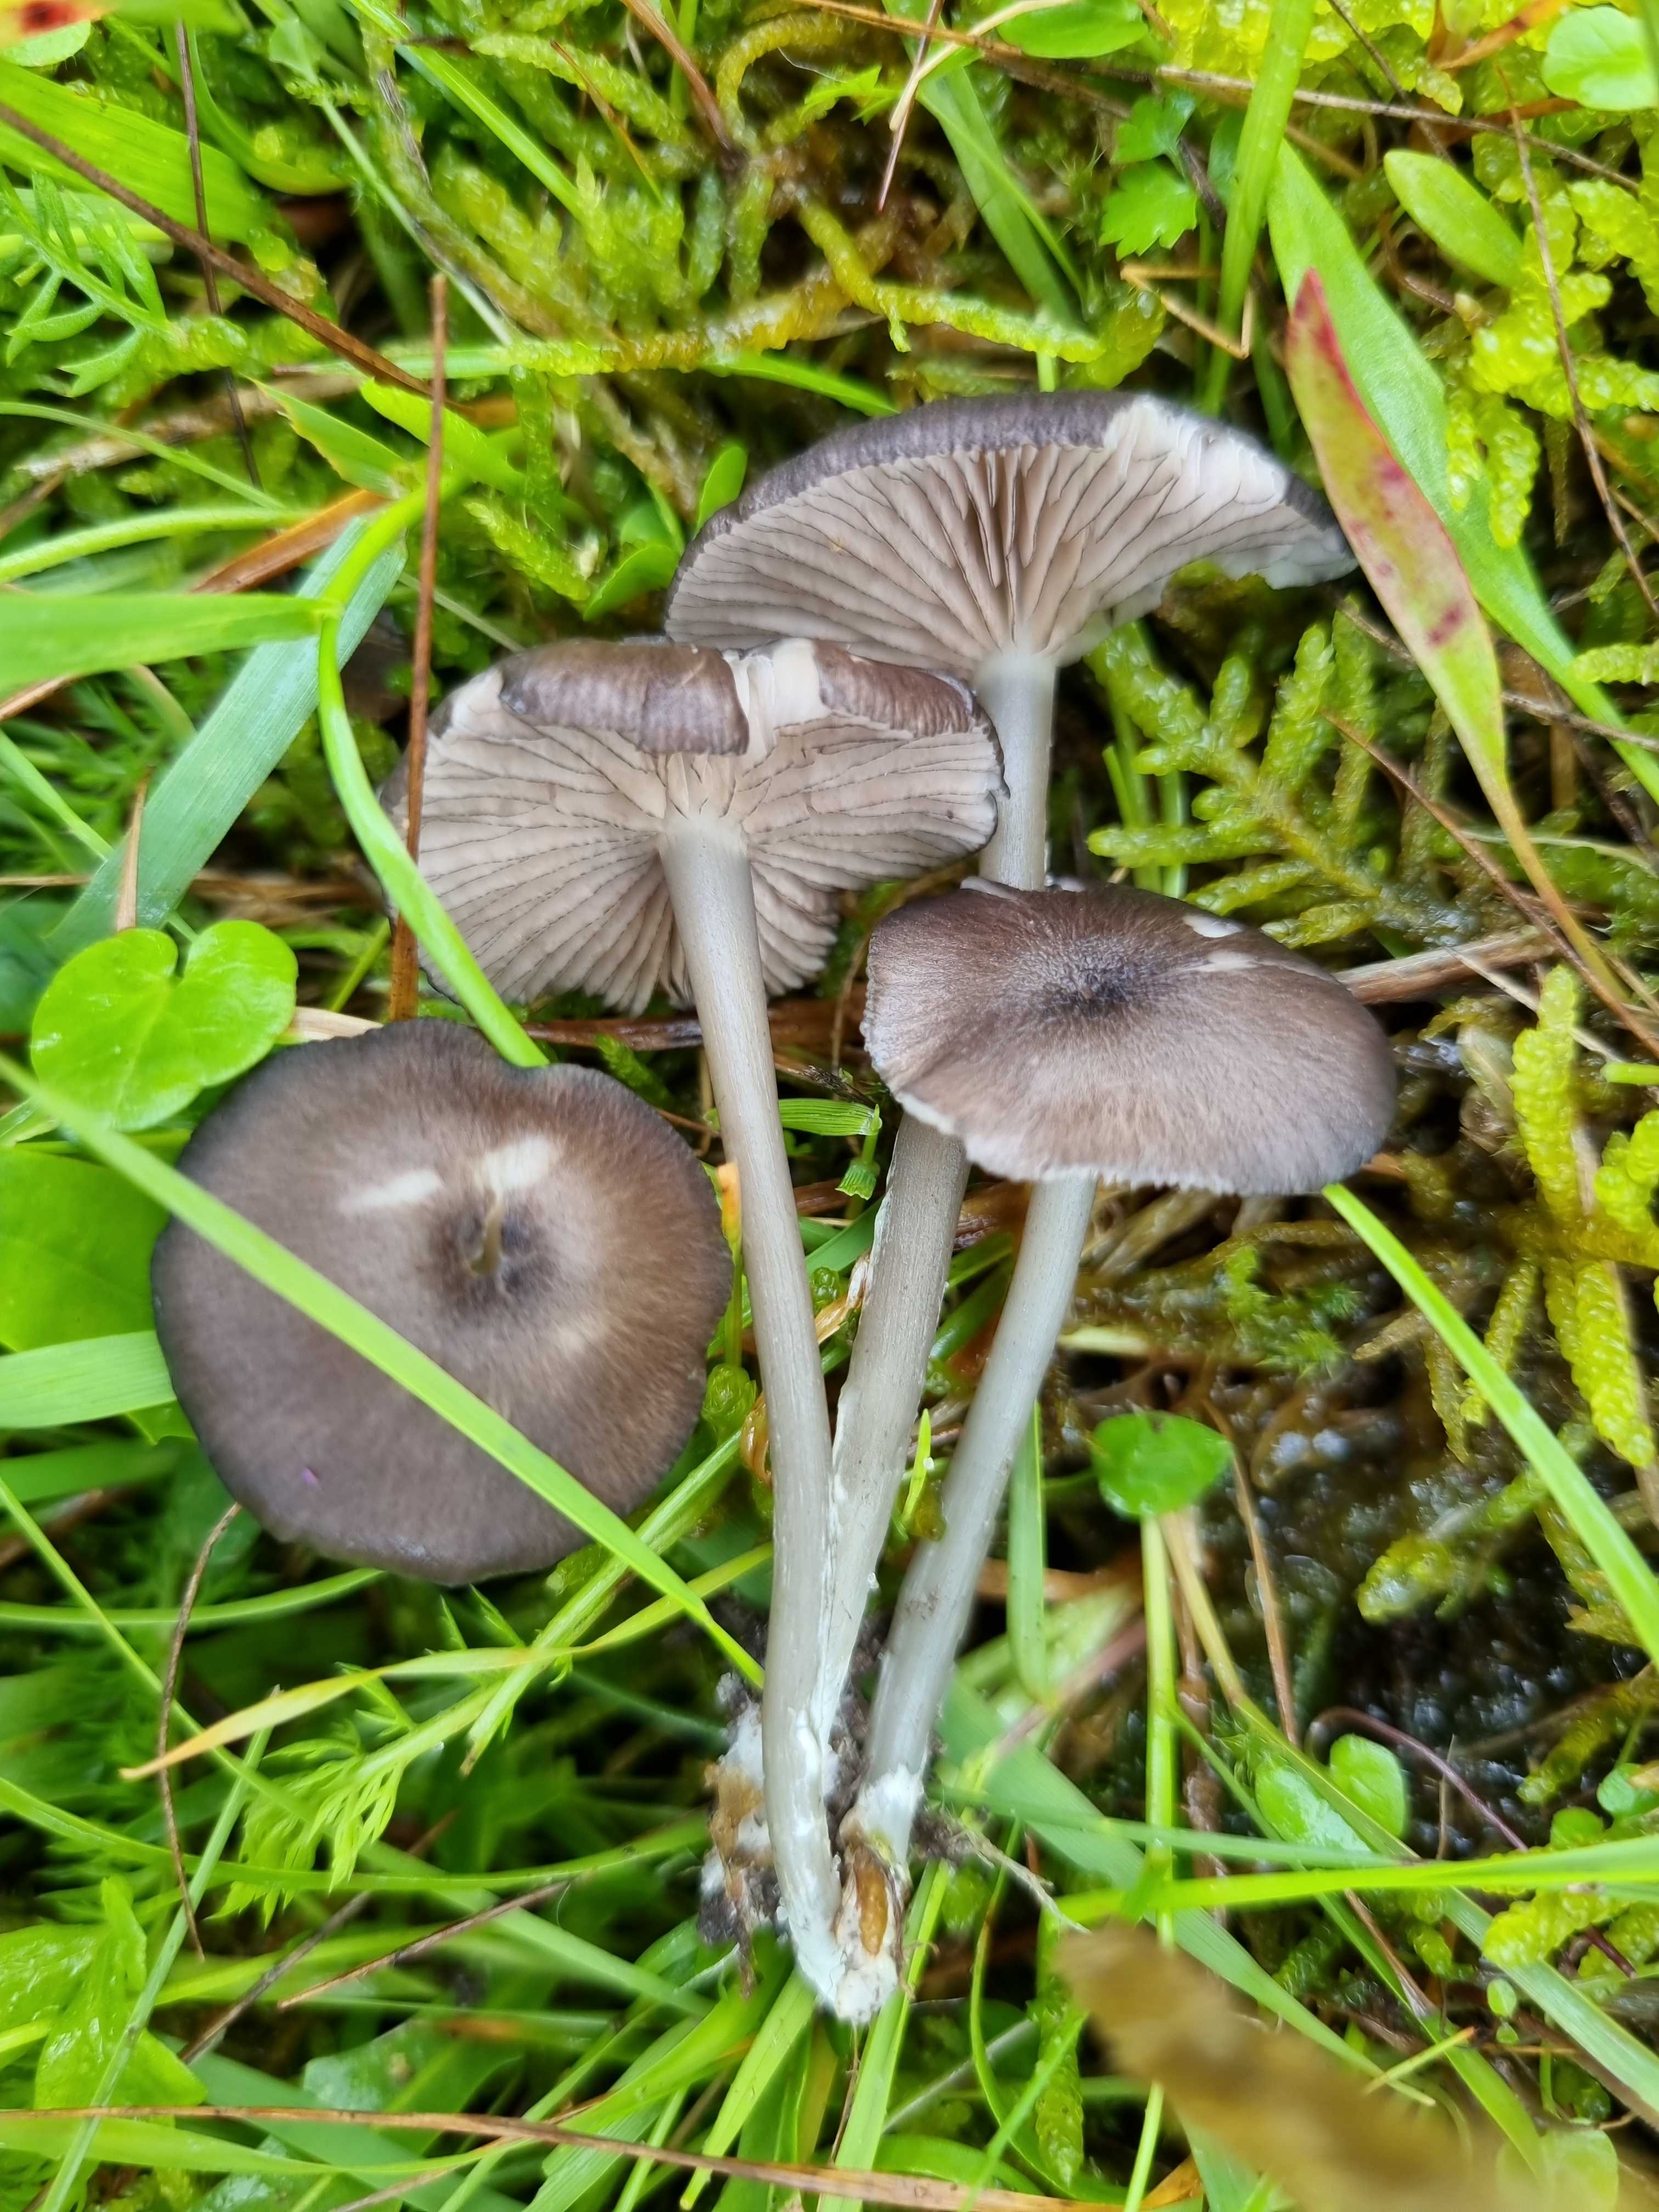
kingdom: Fungi
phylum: Basidiomycota
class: Agaricomycetes
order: Agaricales
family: Entolomataceae
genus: Entoloma
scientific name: Entoloma
